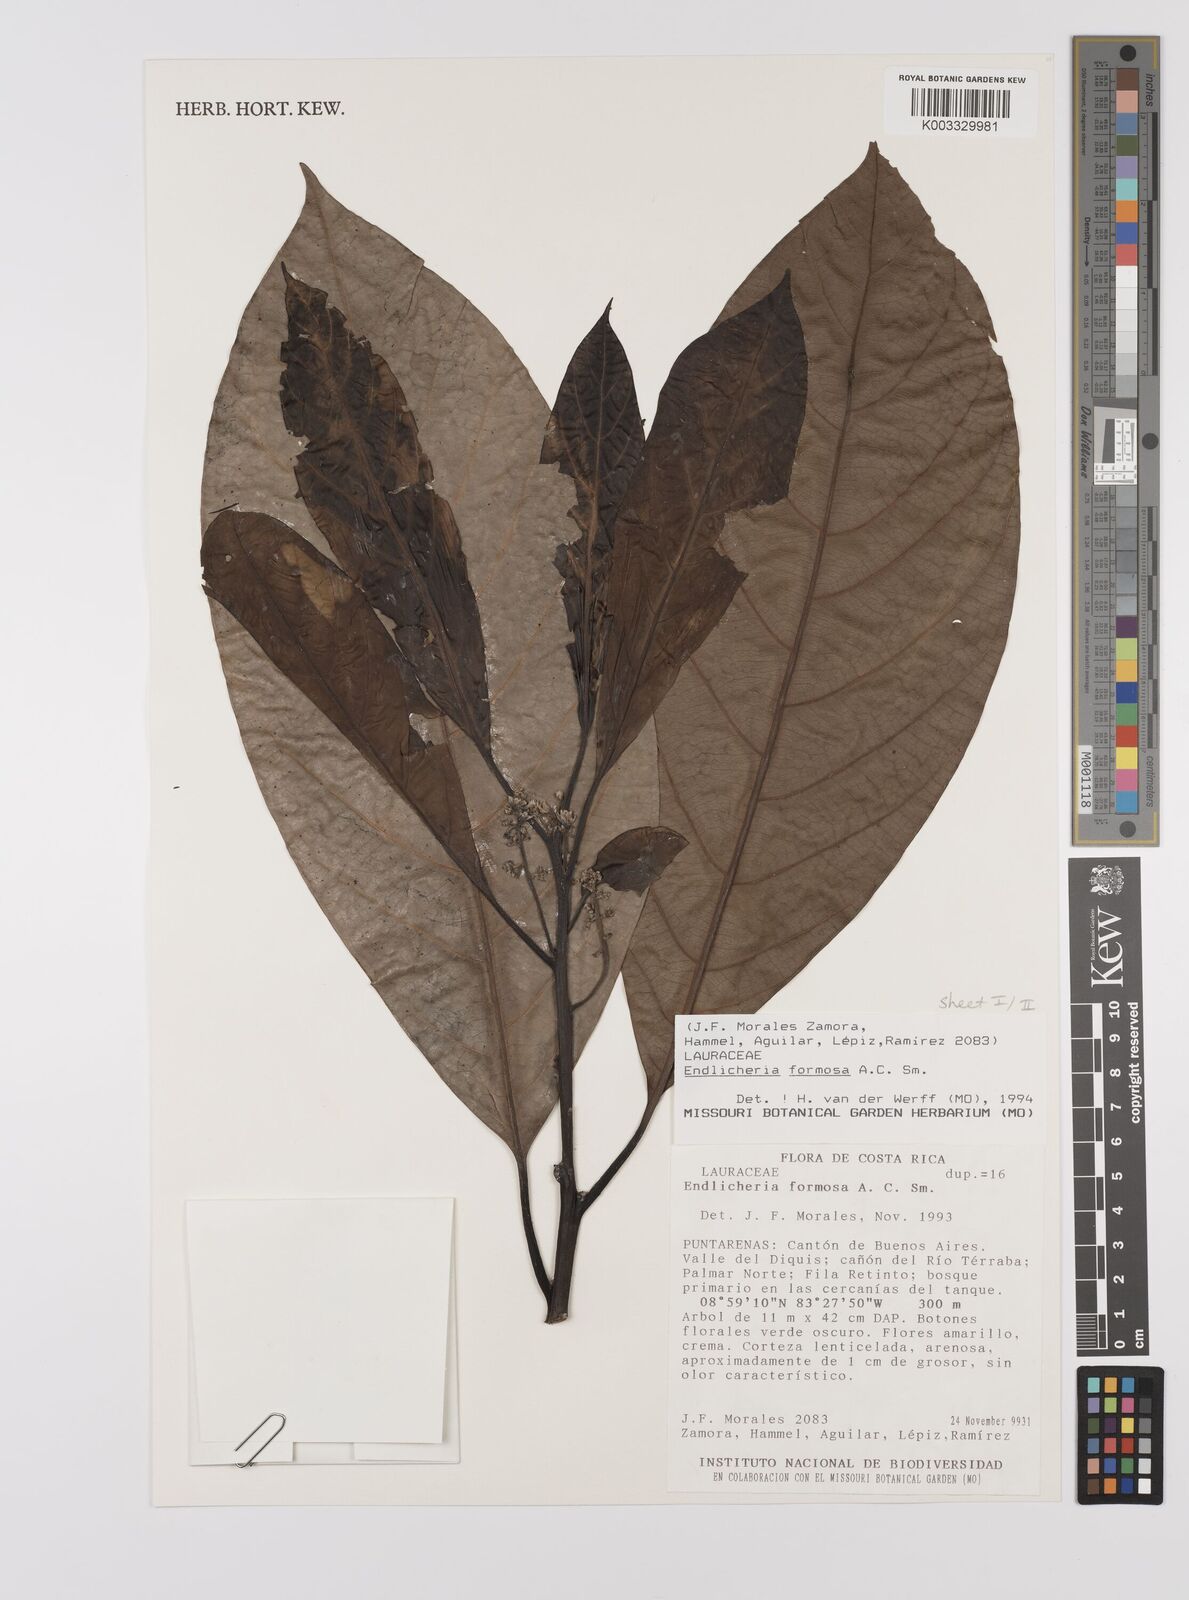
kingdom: Plantae
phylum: Tracheophyta
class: Magnoliopsida
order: Laurales
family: Lauraceae
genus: Endlicheria
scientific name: Endlicheria formosa
